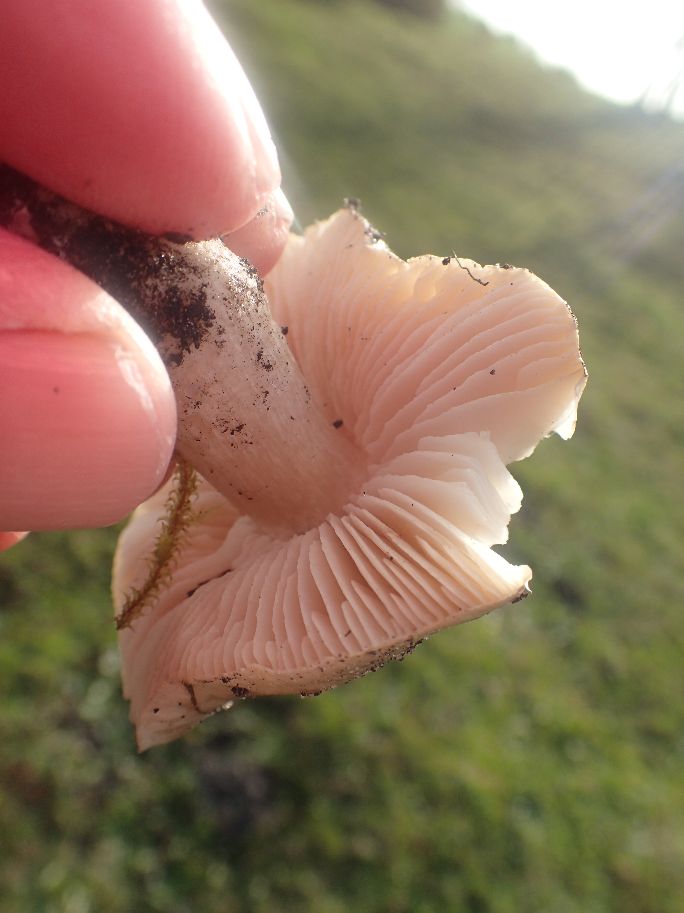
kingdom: Fungi
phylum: Basidiomycota
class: Agaricomycetes
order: Agaricales
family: Entolomataceae
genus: Entoloma
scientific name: Entoloma prunuloides
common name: mel-rødblad
